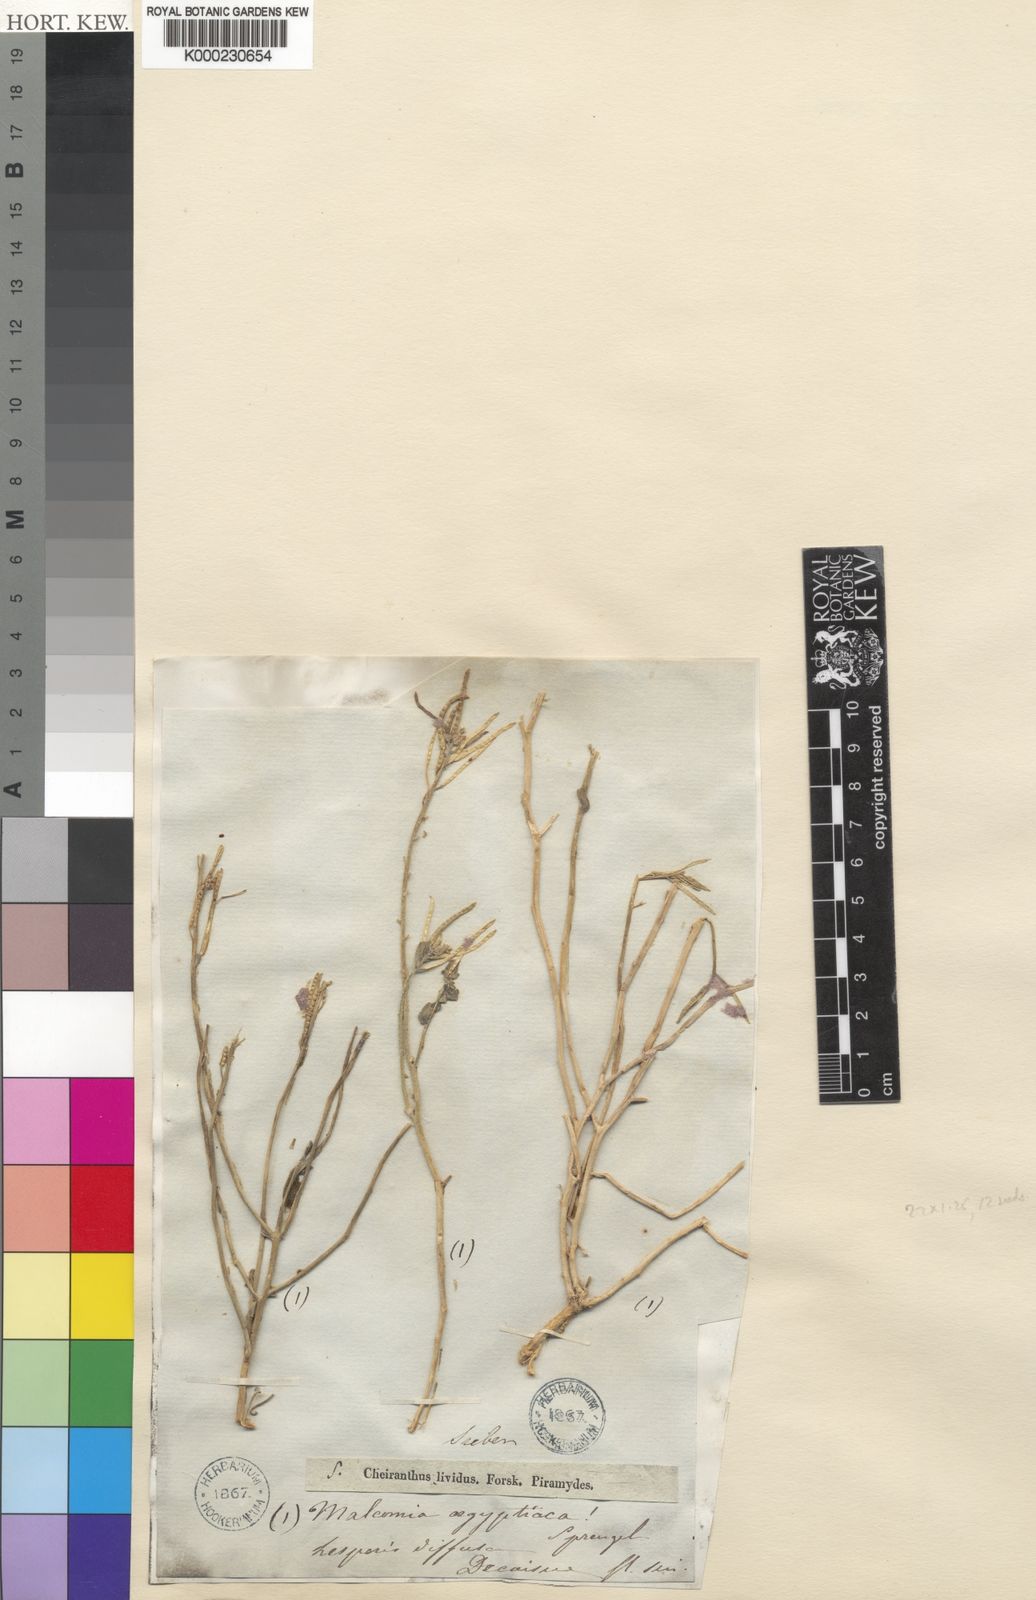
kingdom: Plantae
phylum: Tracheophyta
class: Magnoliopsida
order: Brassicales
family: Brassicaceae
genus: Eremobium
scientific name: Eremobium aegyptiacum
